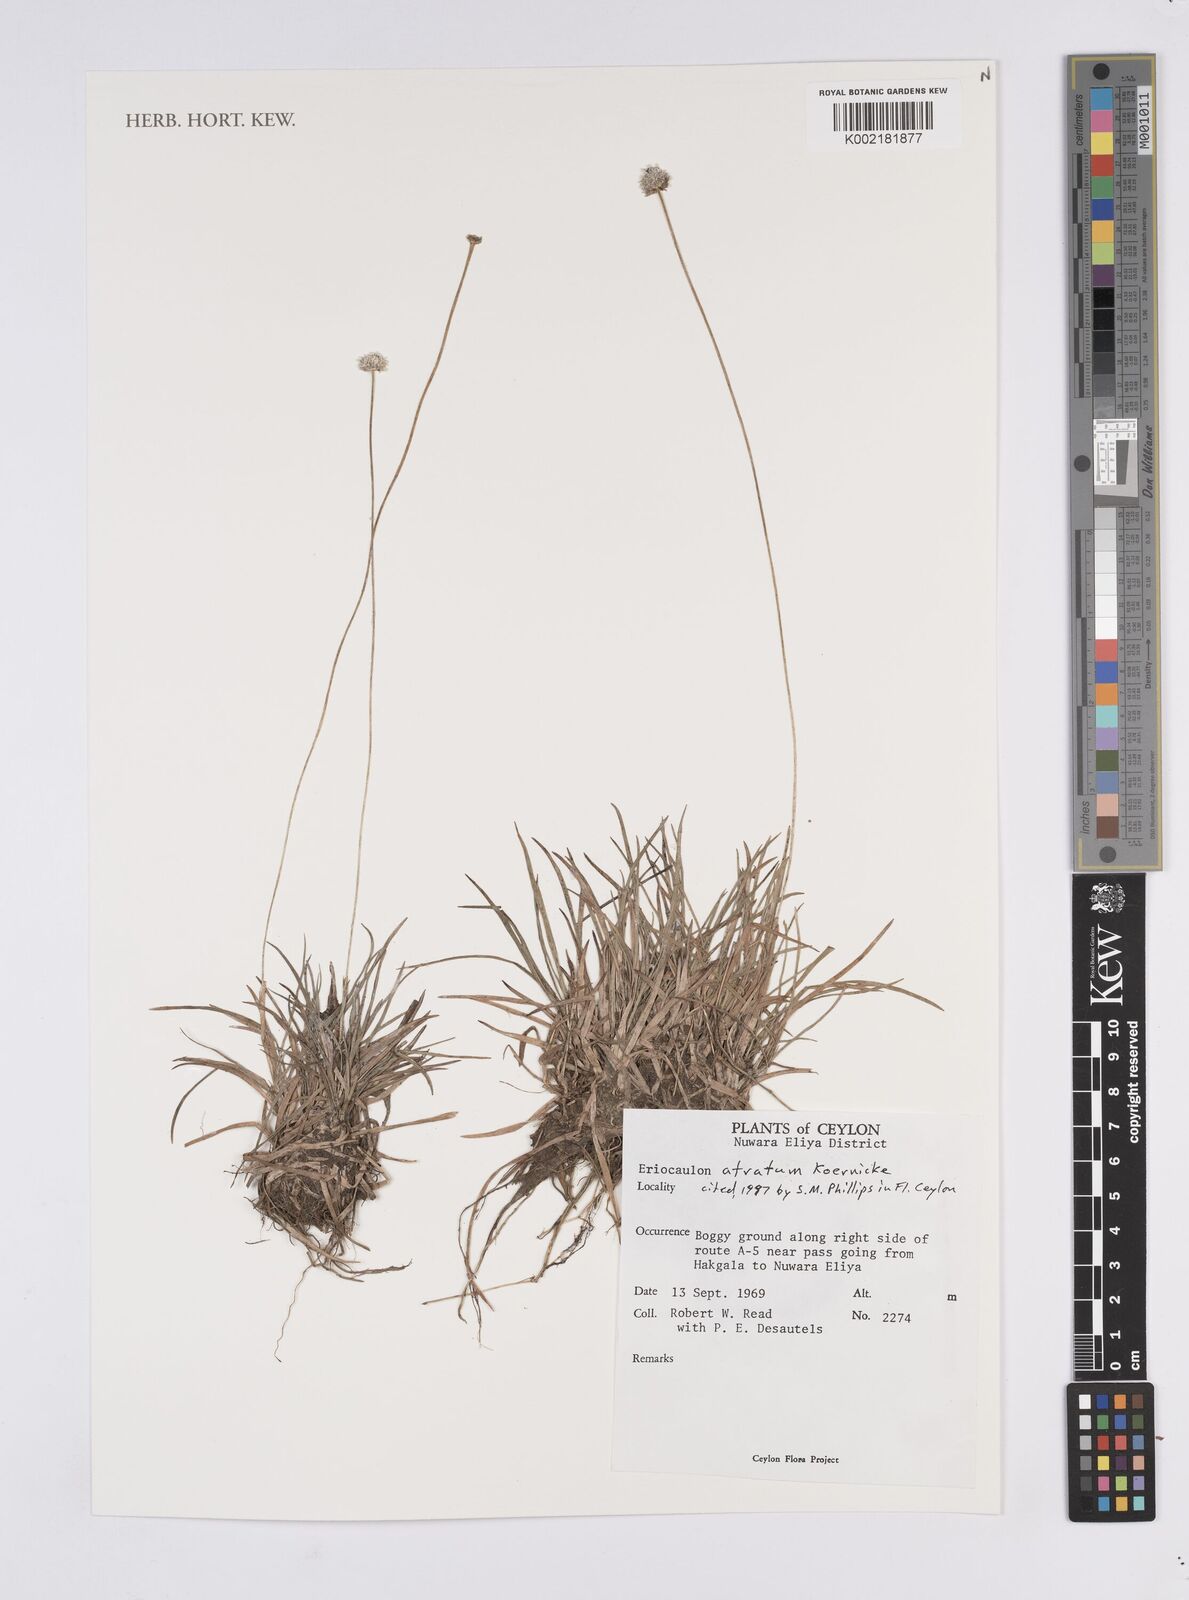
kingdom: Plantae
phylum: Tracheophyta
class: Liliopsida
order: Poales
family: Eriocaulaceae
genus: Eriocaulon
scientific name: Eriocaulon atratum
